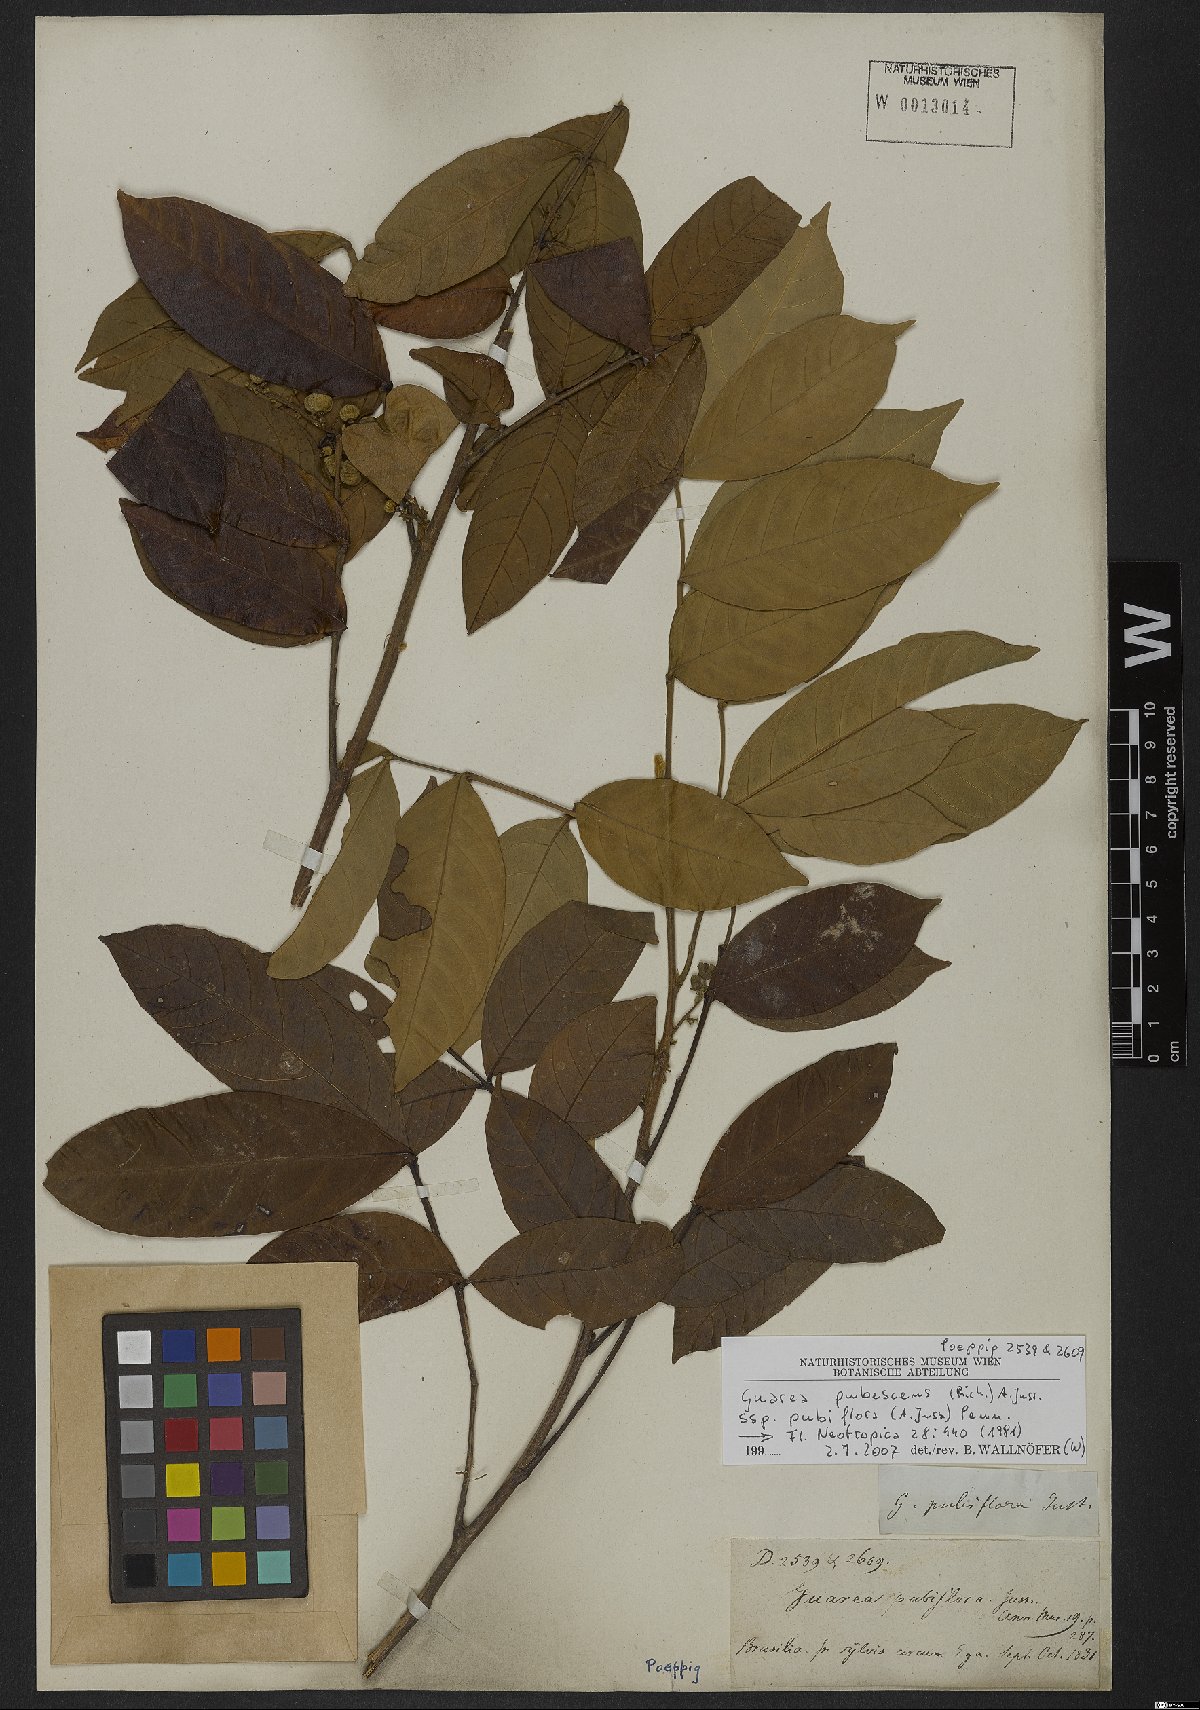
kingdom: Plantae
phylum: Tracheophyta
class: Magnoliopsida
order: Sapindales
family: Meliaceae
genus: Guarea
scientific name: Guarea pubescens
